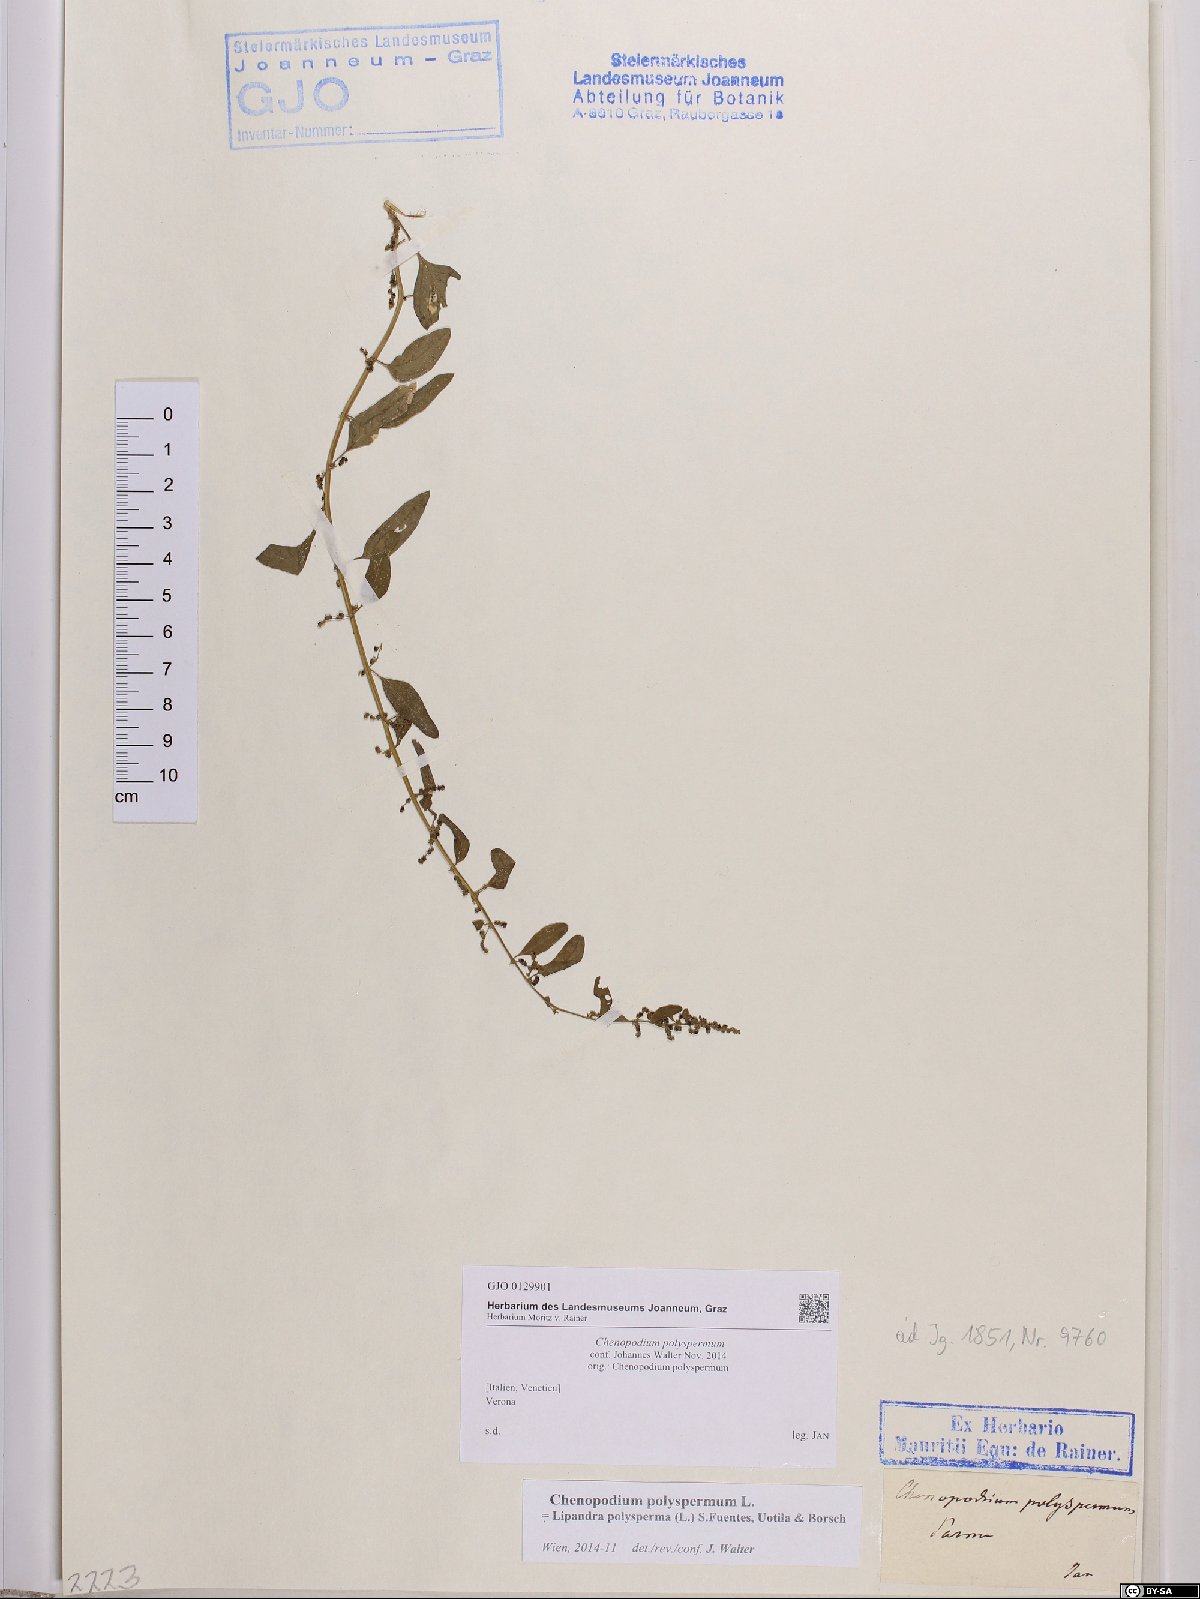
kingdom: Plantae
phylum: Tracheophyta
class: Magnoliopsida
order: Caryophyllales
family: Amaranthaceae
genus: Lipandra
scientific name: Lipandra polysperma
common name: Many-seed goosefoot
